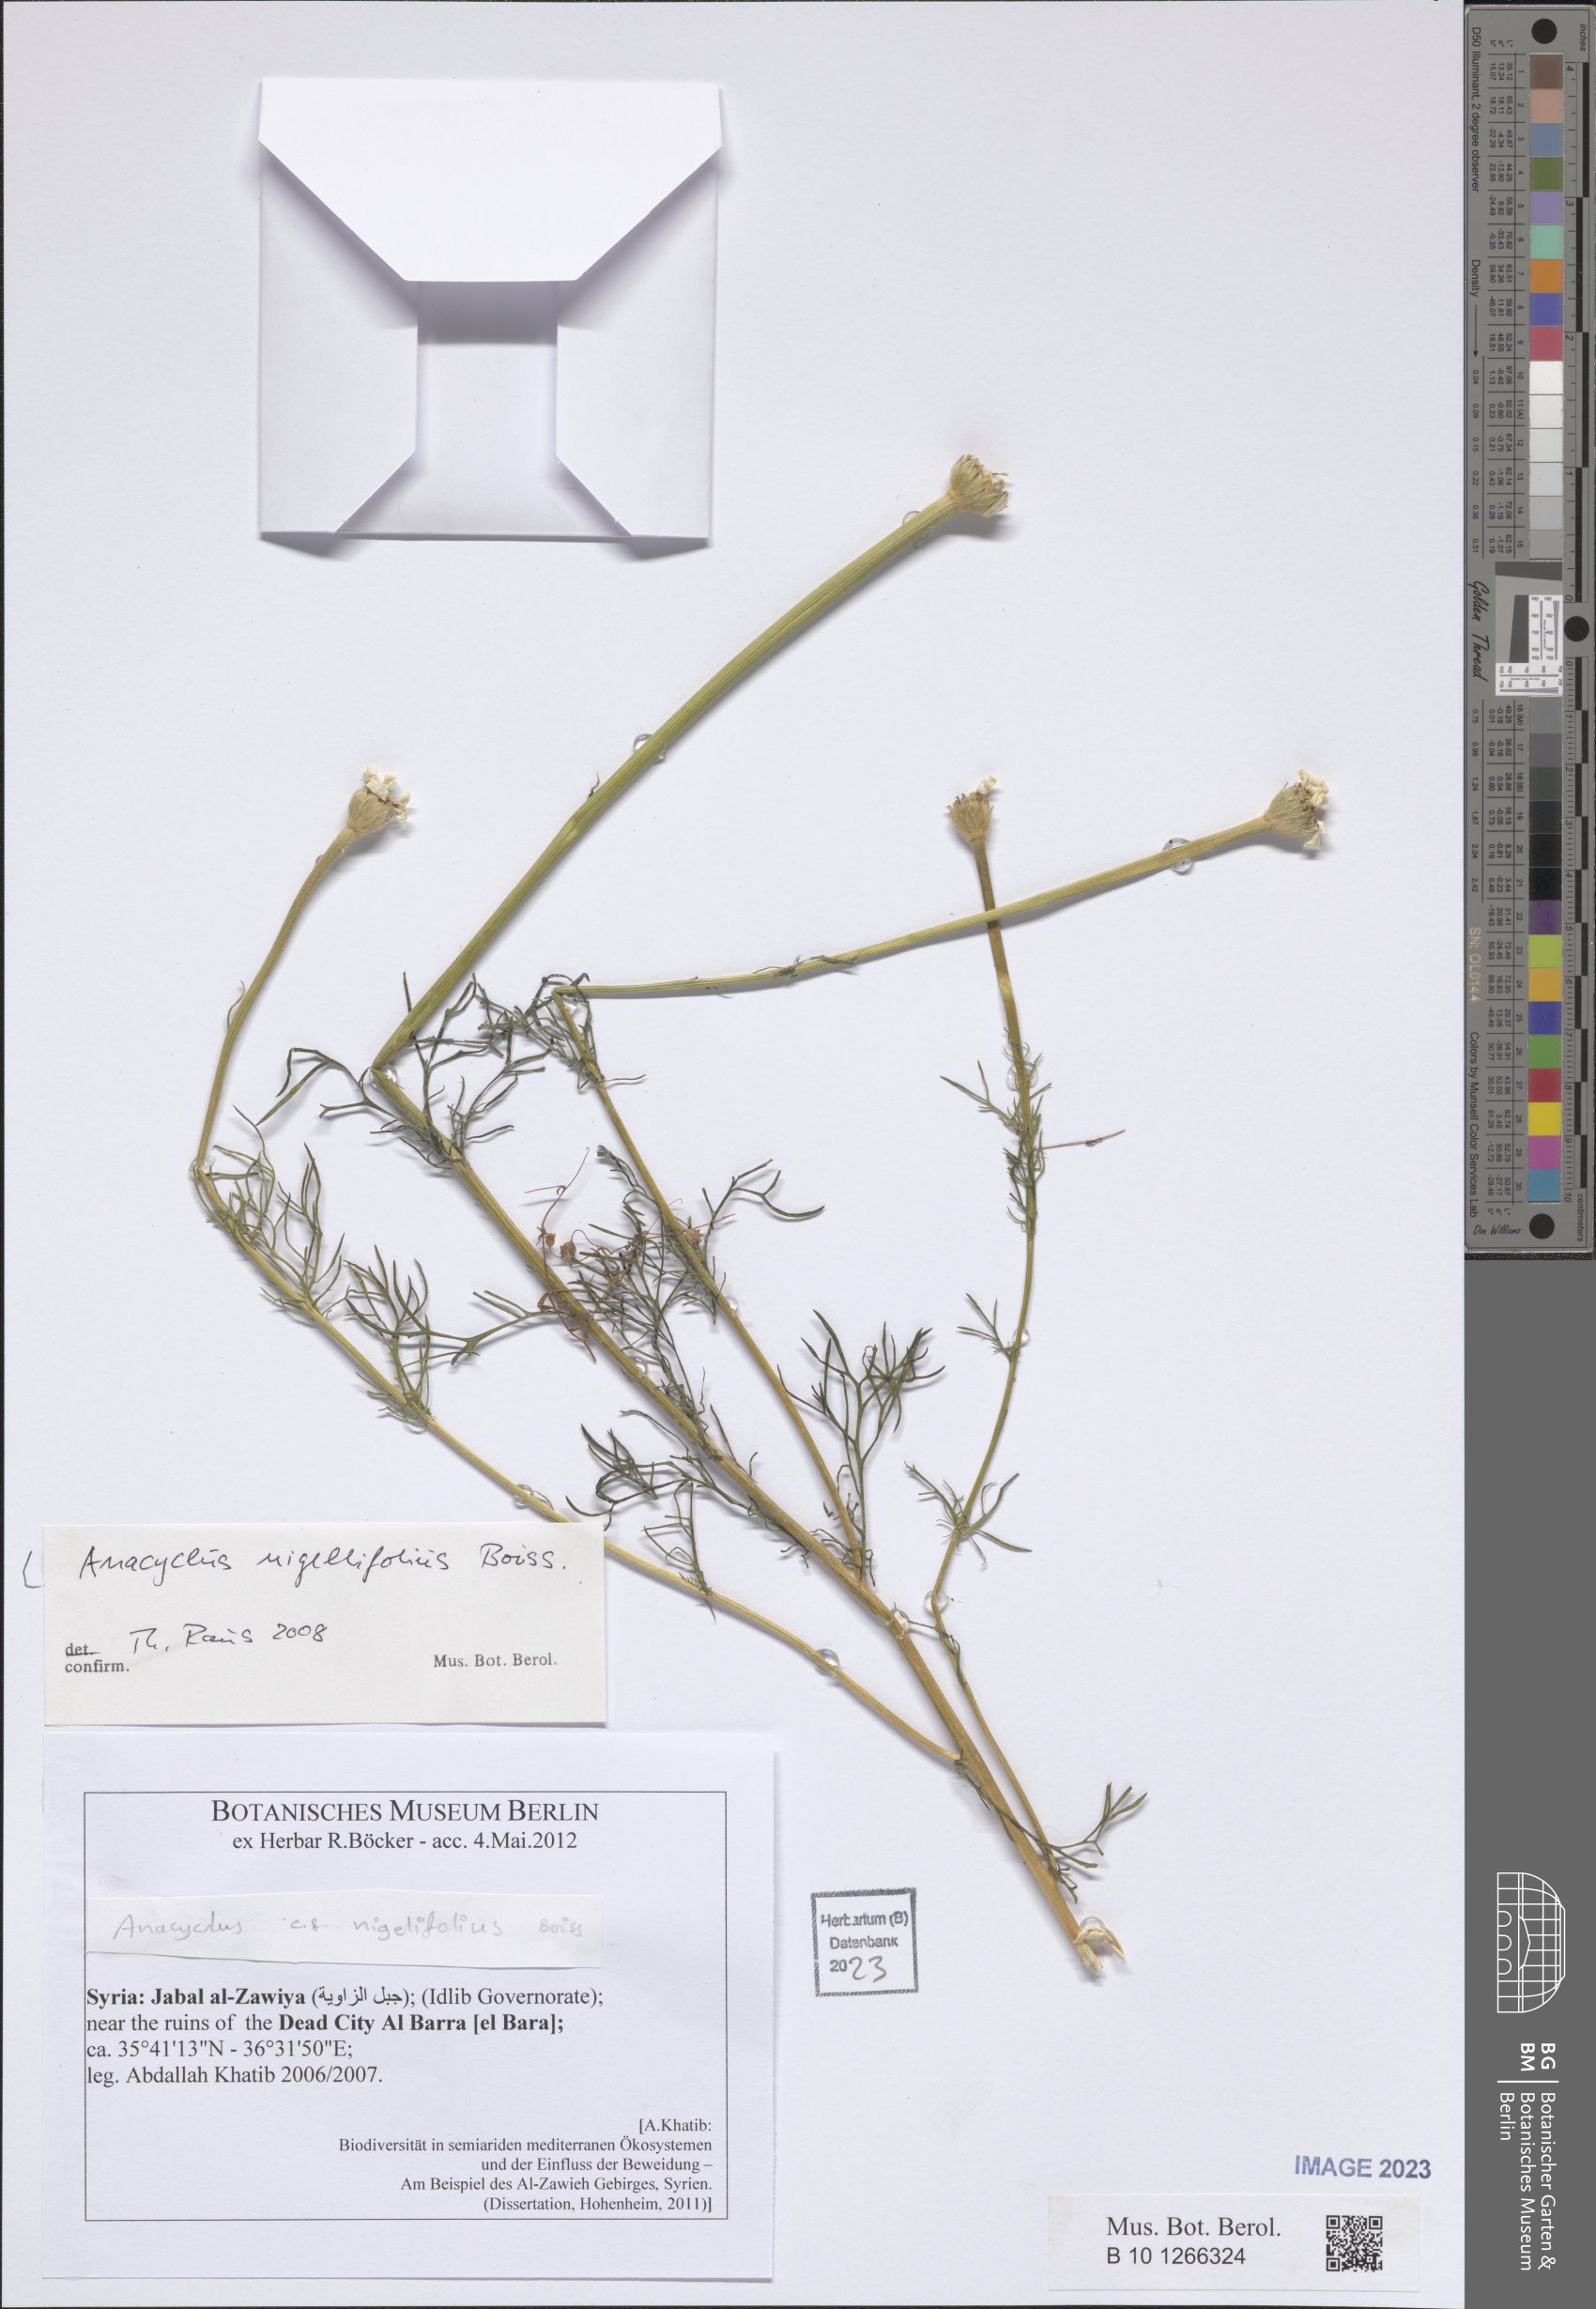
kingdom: Plantae
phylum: Tracheophyta
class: Magnoliopsida
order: Asterales
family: Asteraceae
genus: Cota
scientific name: Cota nigellifolia
